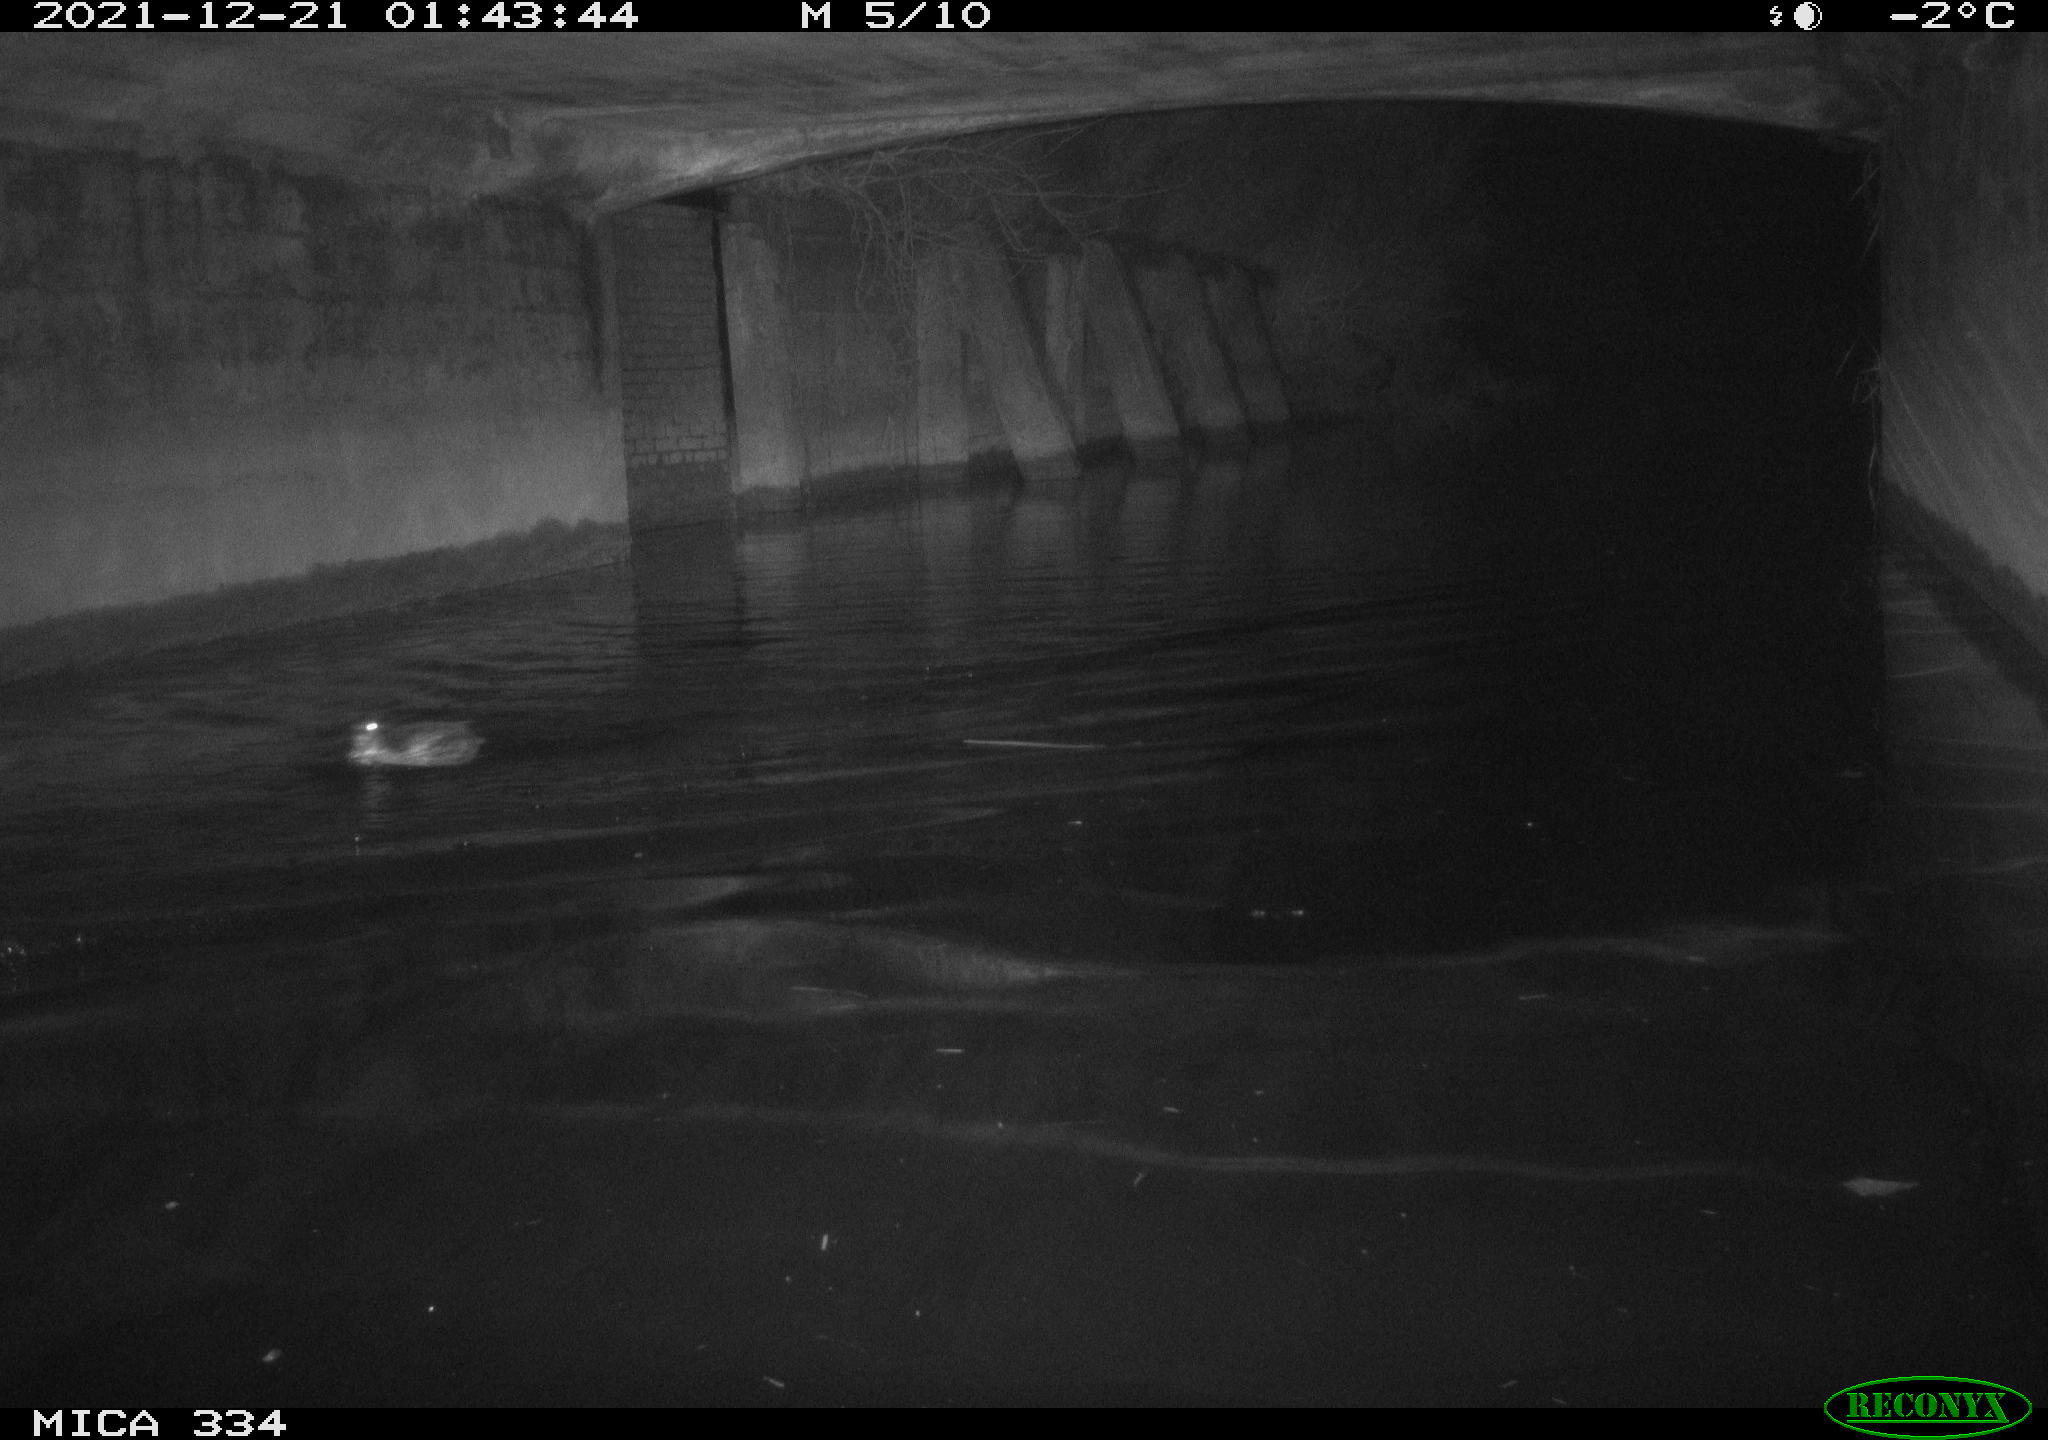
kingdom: Animalia
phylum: Chordata
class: Aves
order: Anseriformes
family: Anatidae
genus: Anas
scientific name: Anas platyrhynchos
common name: Mallard
